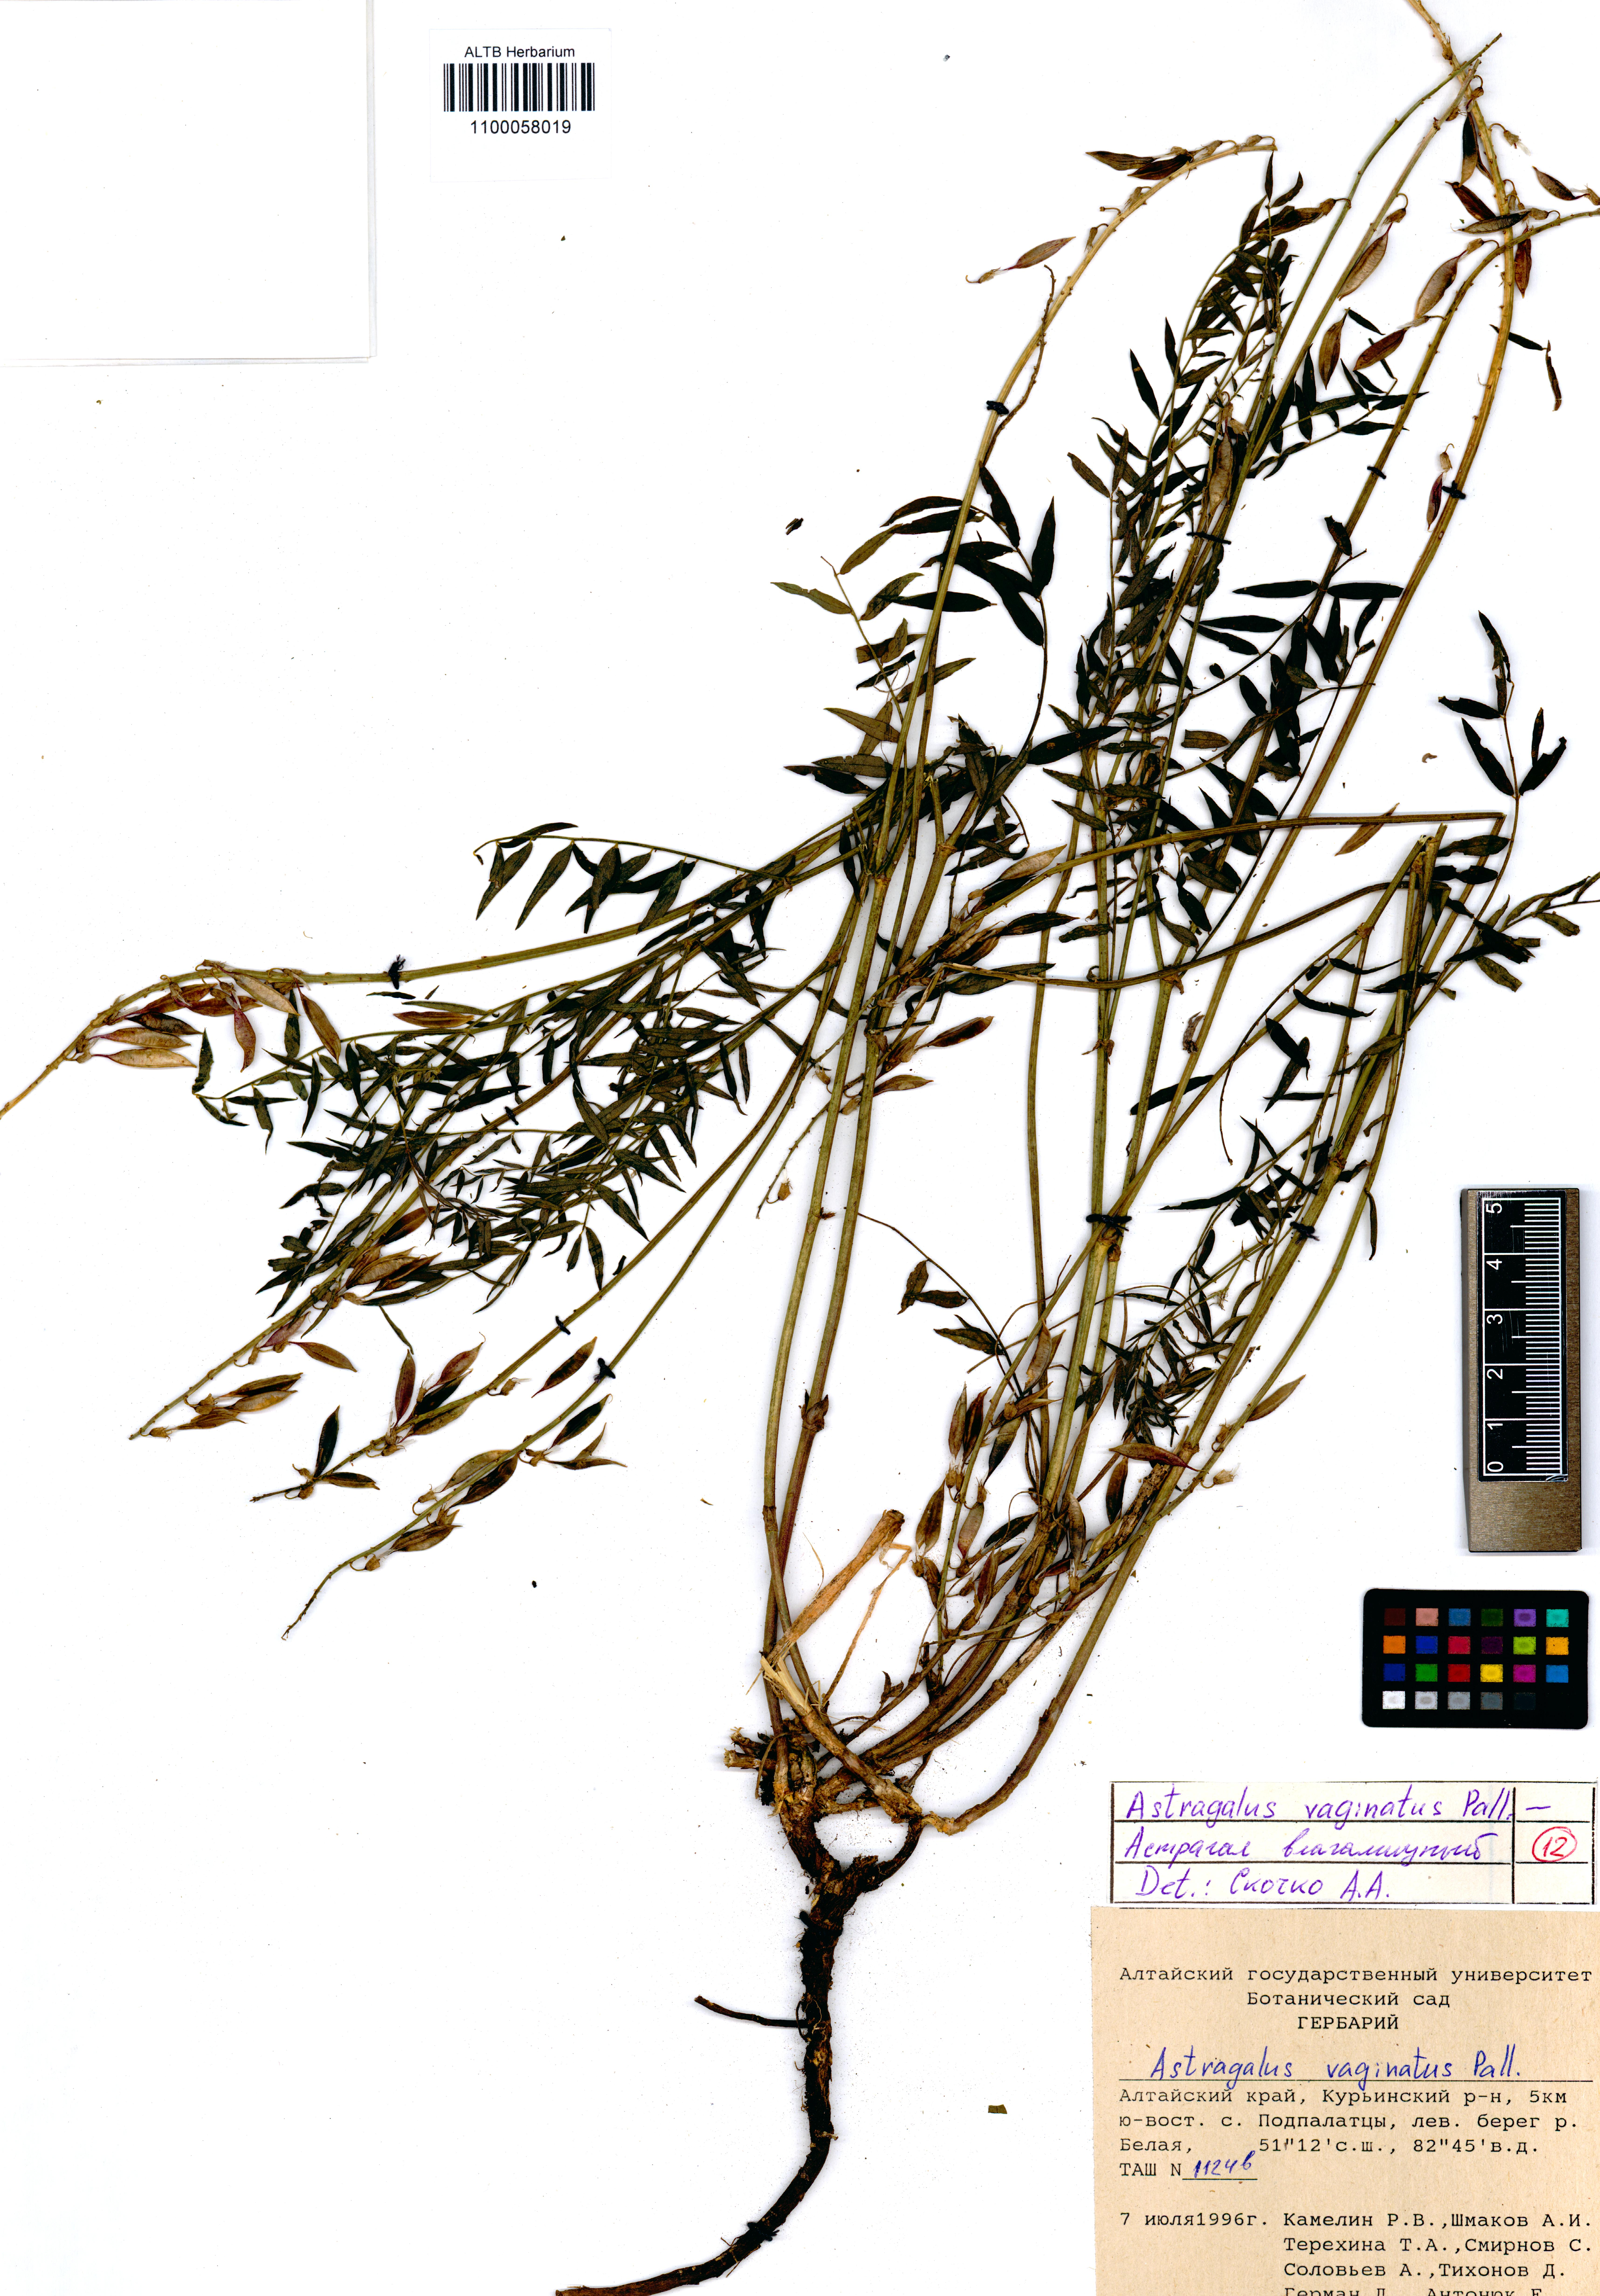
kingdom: Plantae
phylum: Tracheophyta
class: Magnoliopsida
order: Fabales
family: Fabaceae
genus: Astragalus
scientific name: Astragalus vaginatus
